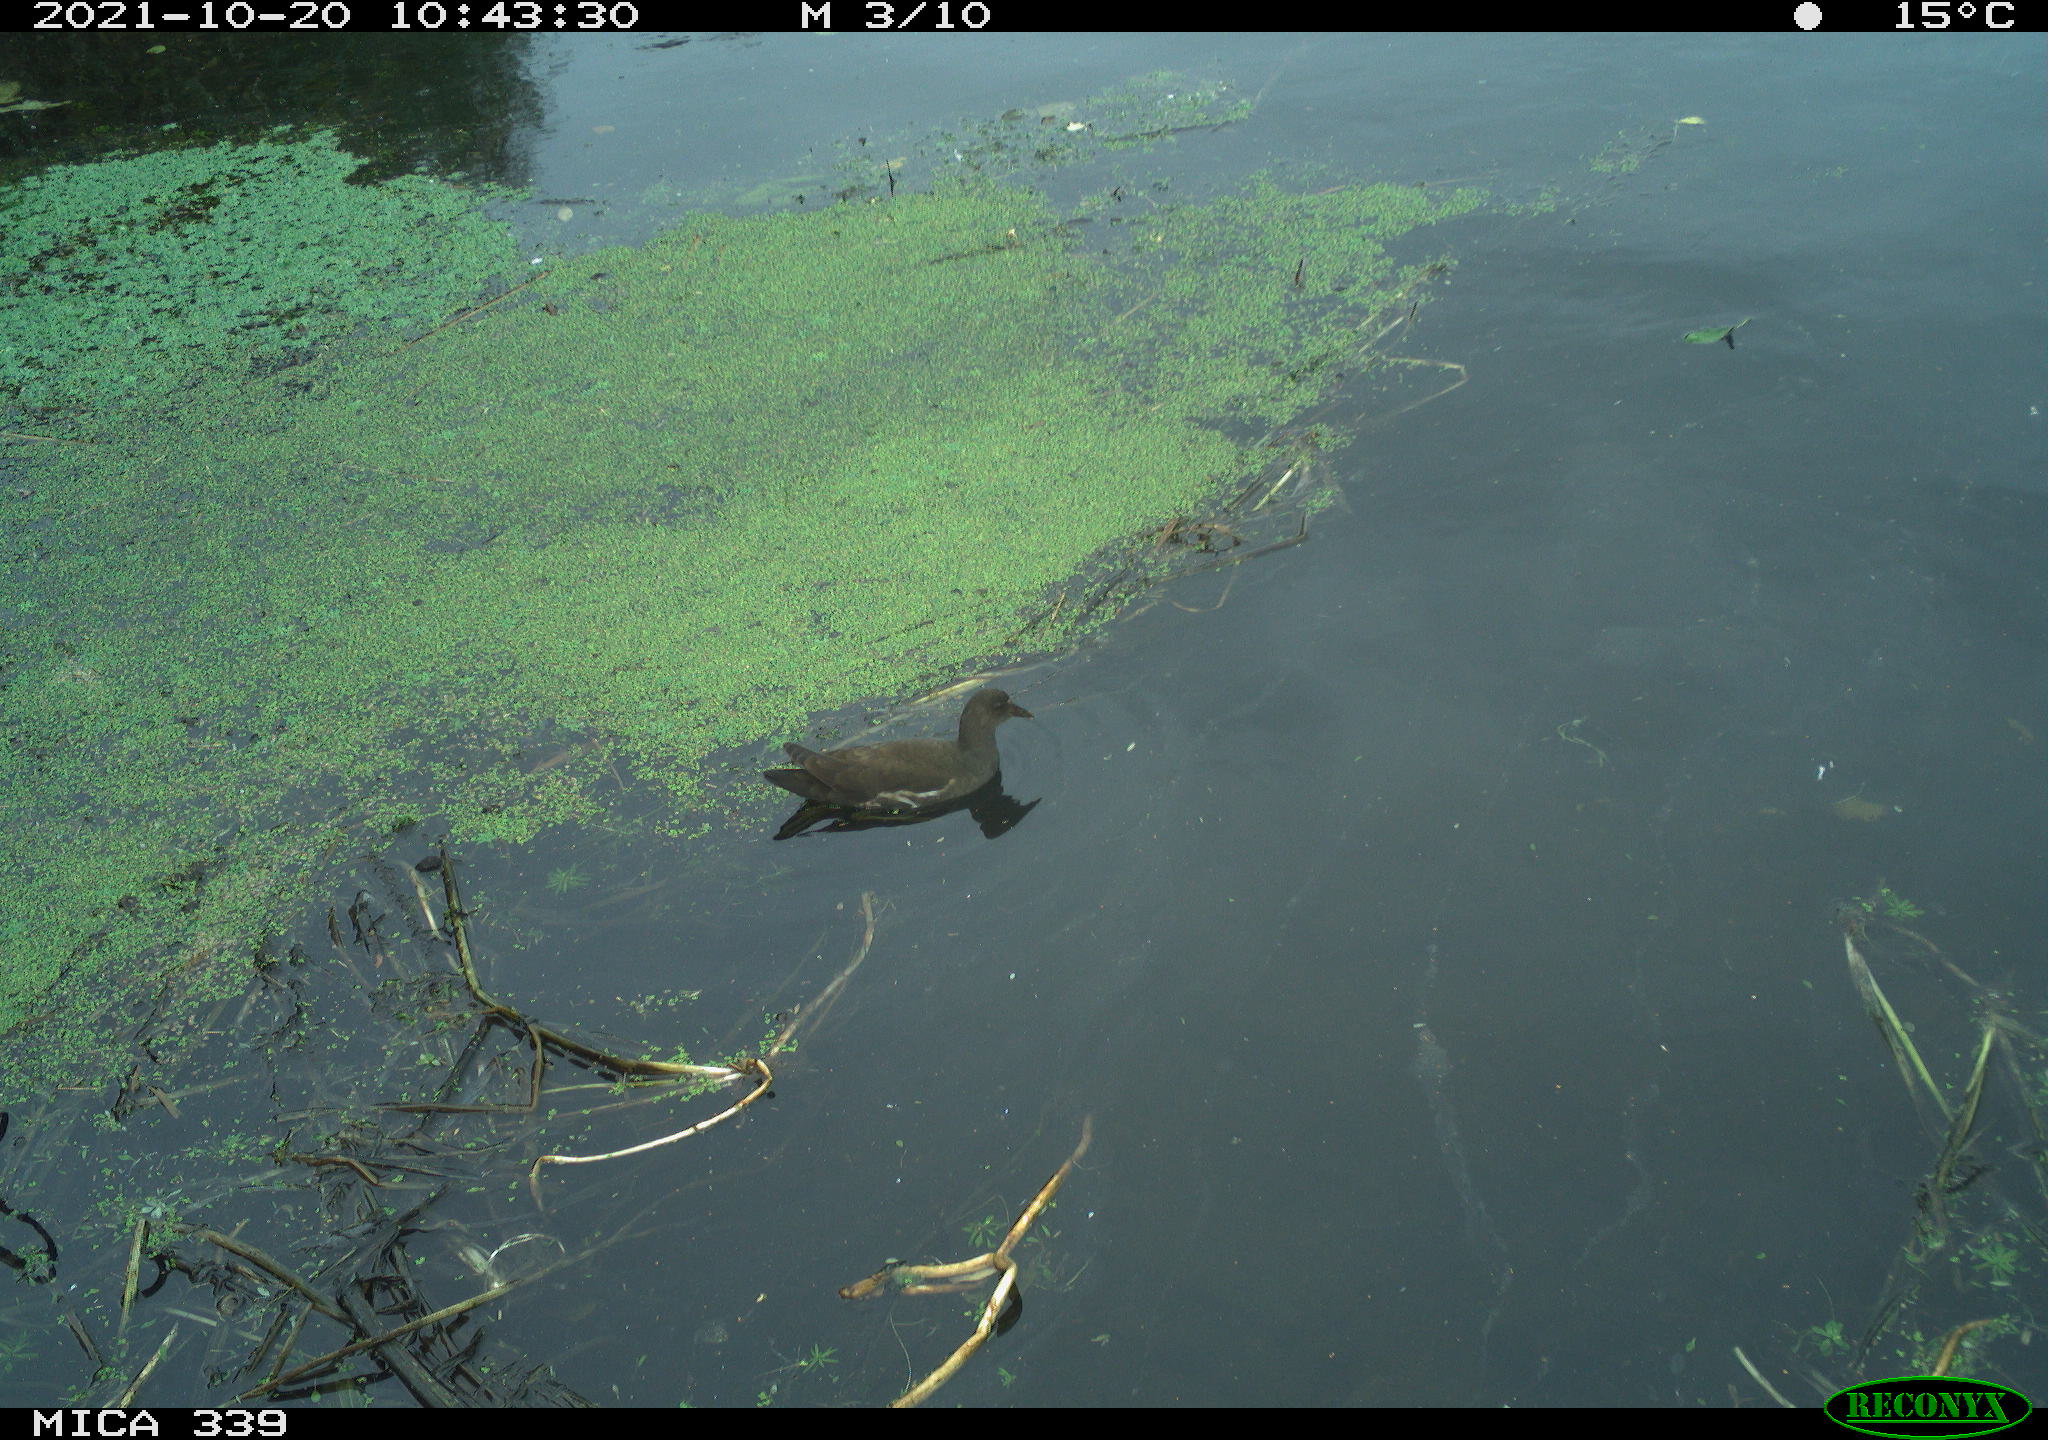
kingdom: Animalia
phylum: Chordata
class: Aves
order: Gruiformes
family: Rallidae
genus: Gallinula
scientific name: Gallinula chloropus
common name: Common moorhen
